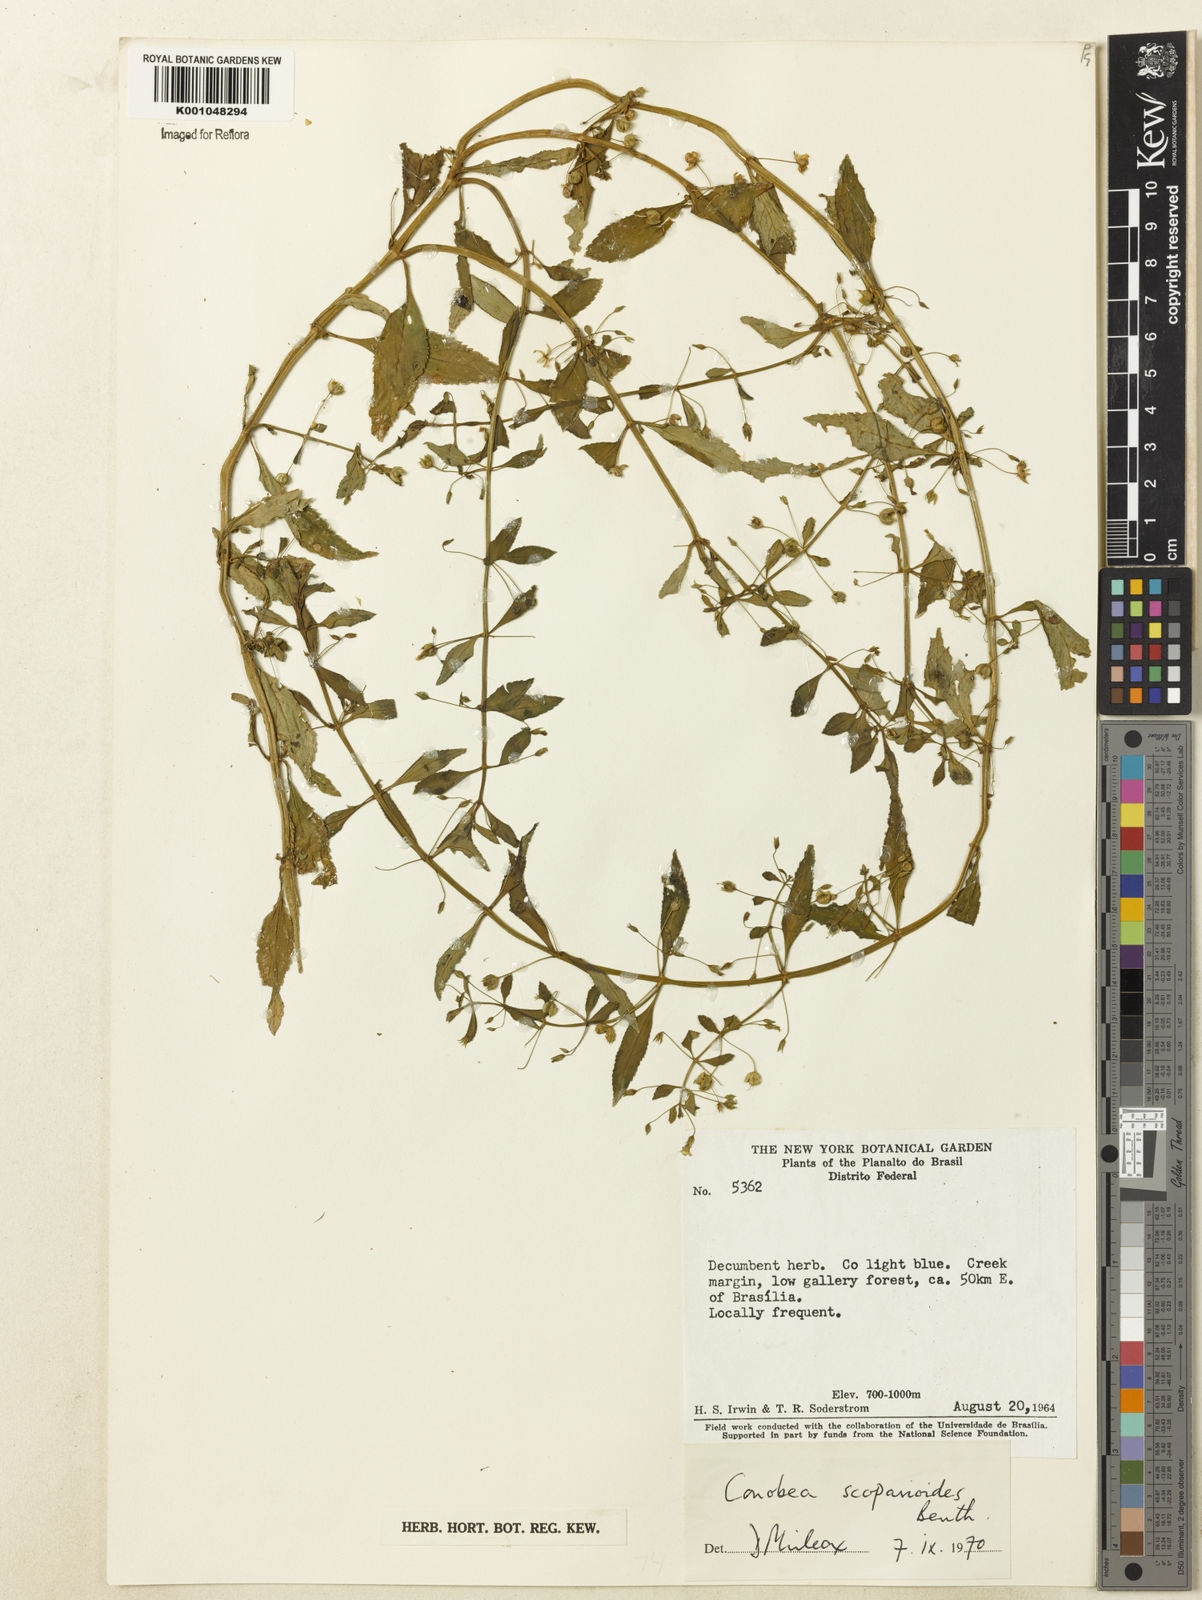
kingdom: Plantae
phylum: Tracheophyta
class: Magnoliopsida
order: Lamiales
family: Plantaginaceae
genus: Conobea
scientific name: Conobea scoparioides
